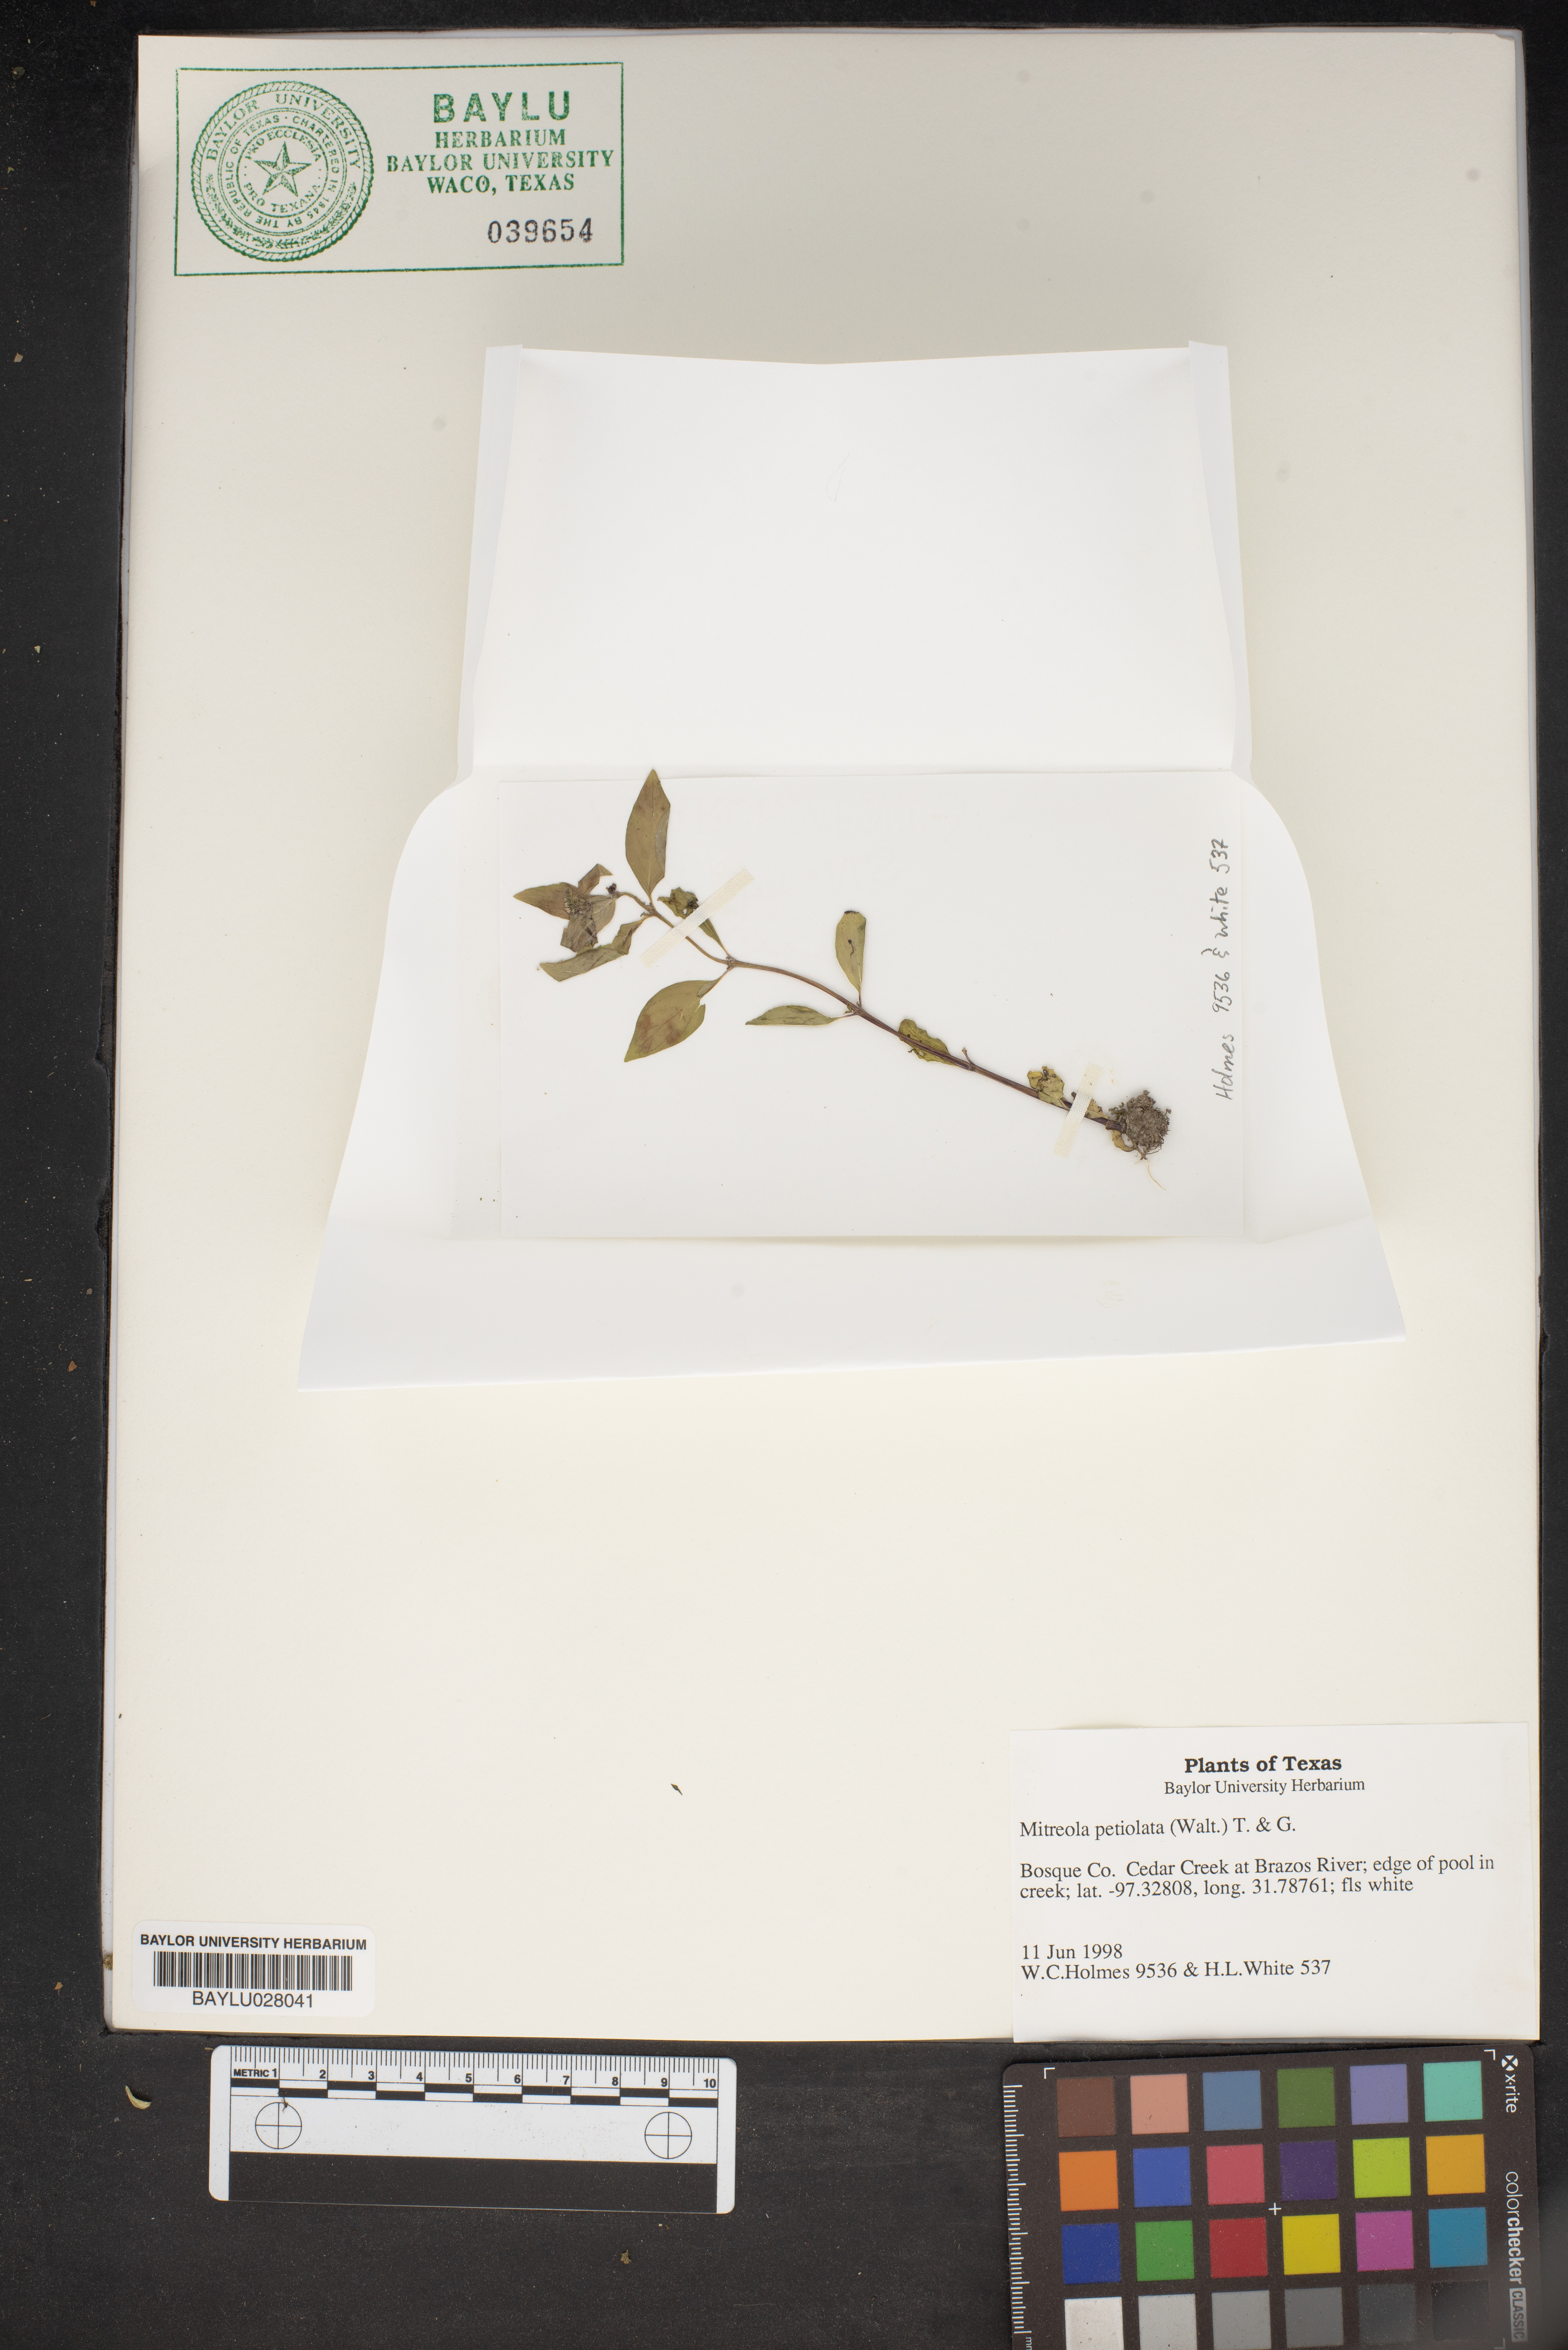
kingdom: Plantae
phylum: Tracheophyta
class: Magnoliopsida
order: Gentianales
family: Loganiaceae
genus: Mitreola
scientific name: Mitreola petiolata
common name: Lax hornpod
